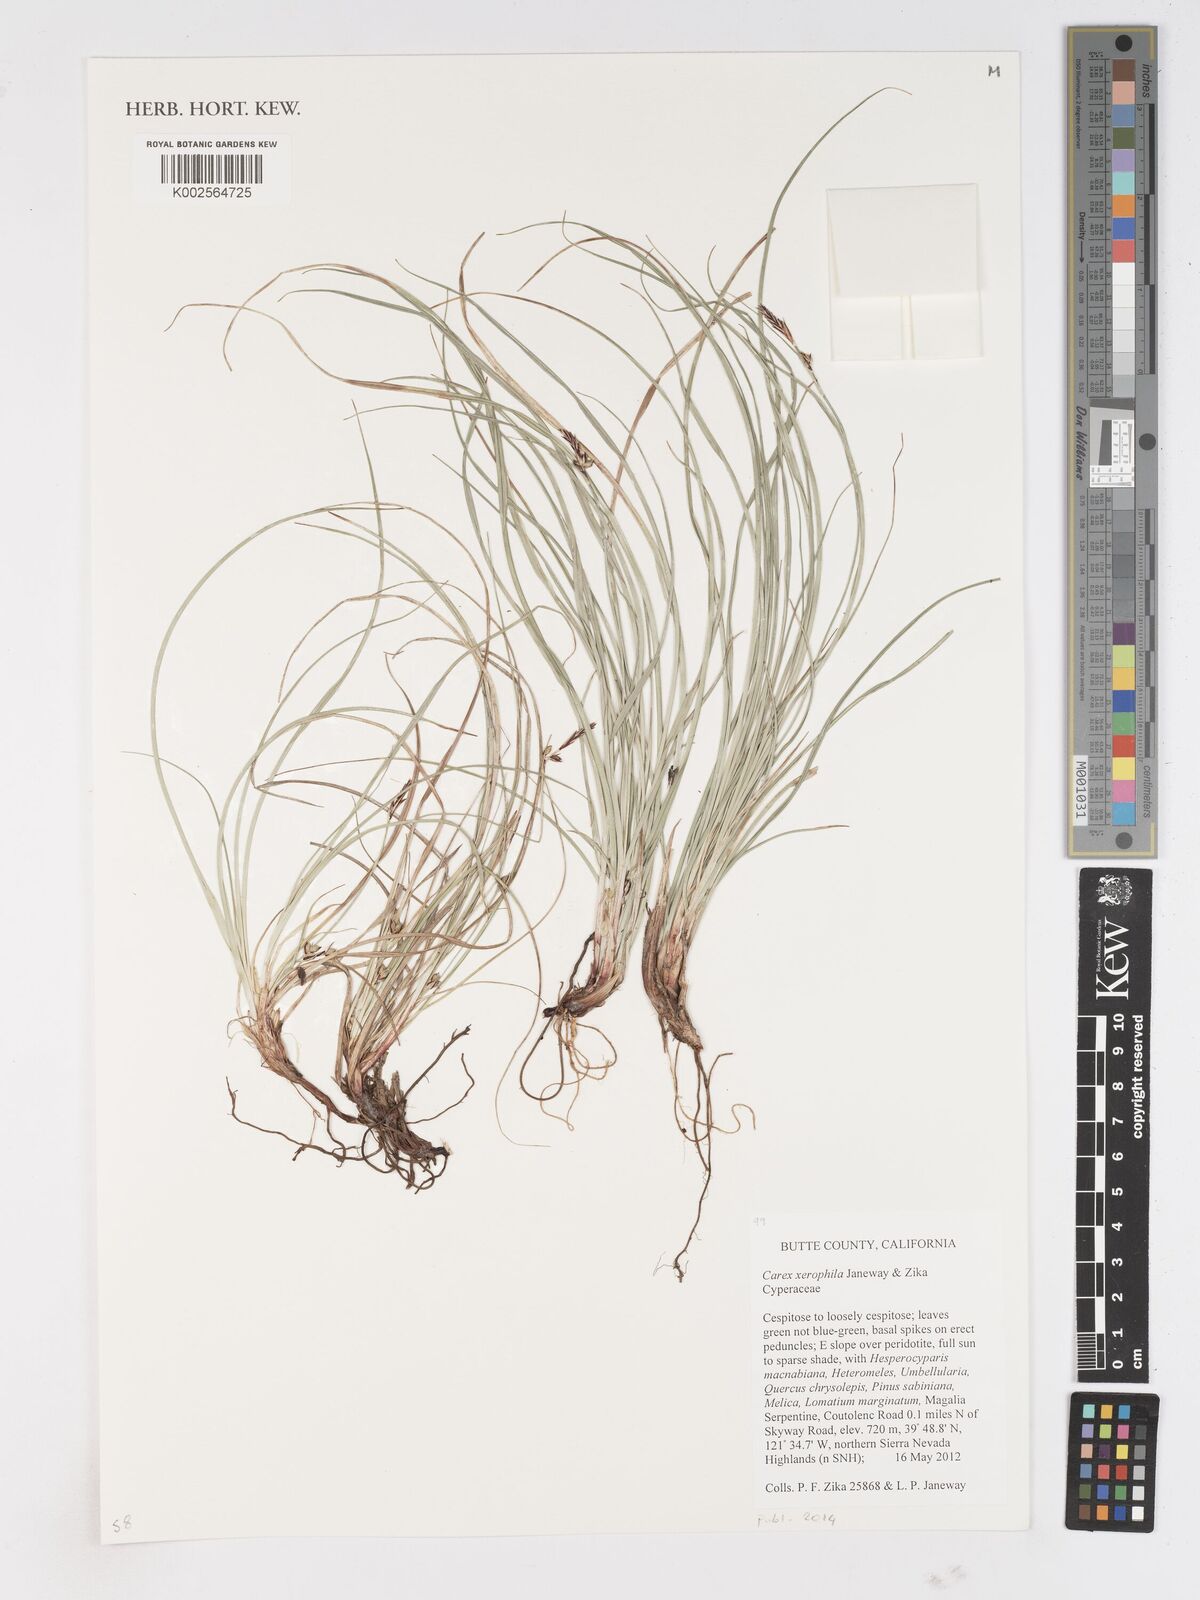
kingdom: Plantae
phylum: Tracheophyta
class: Liliopsida
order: Poales
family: Cyperaceae
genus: Carex
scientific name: Carex xerophila
